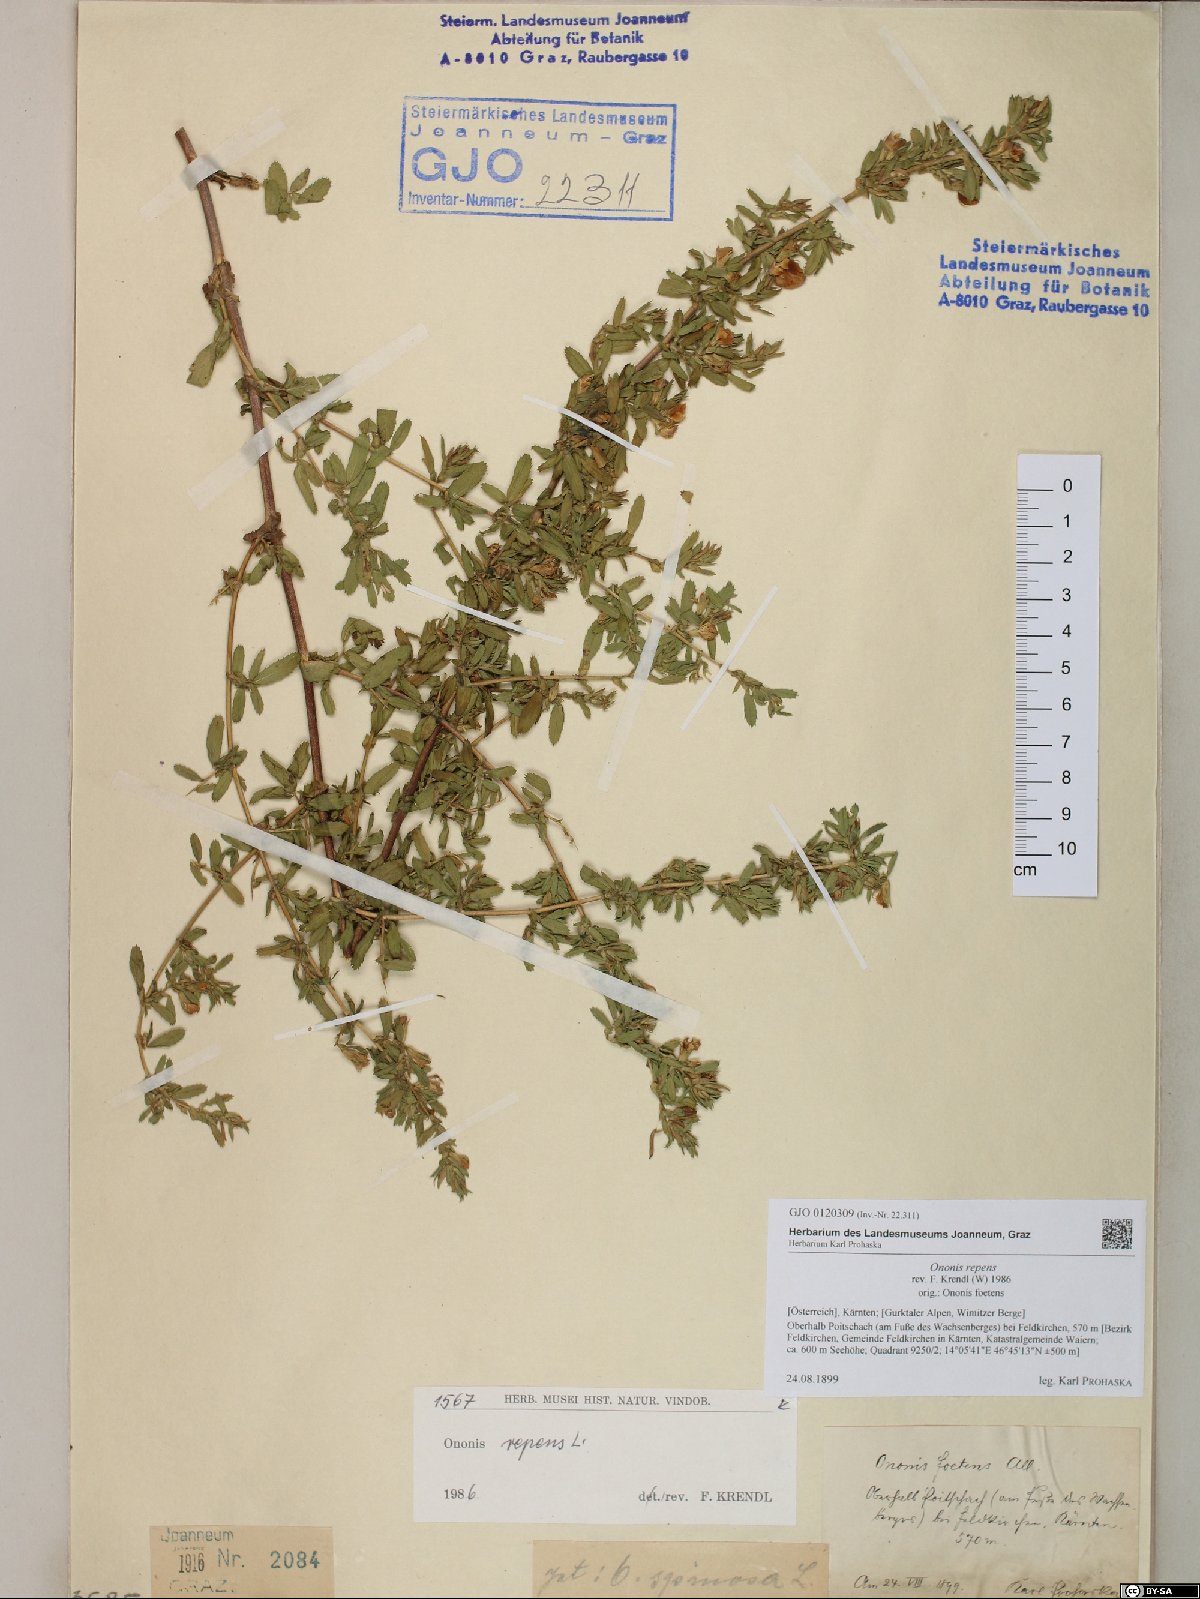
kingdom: Plantae
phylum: Tracheophyta
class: Magnoliopsida
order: Fabales
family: Fabaceae
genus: Ononis
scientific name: Ononis spinosa
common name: Spiny restharrow
